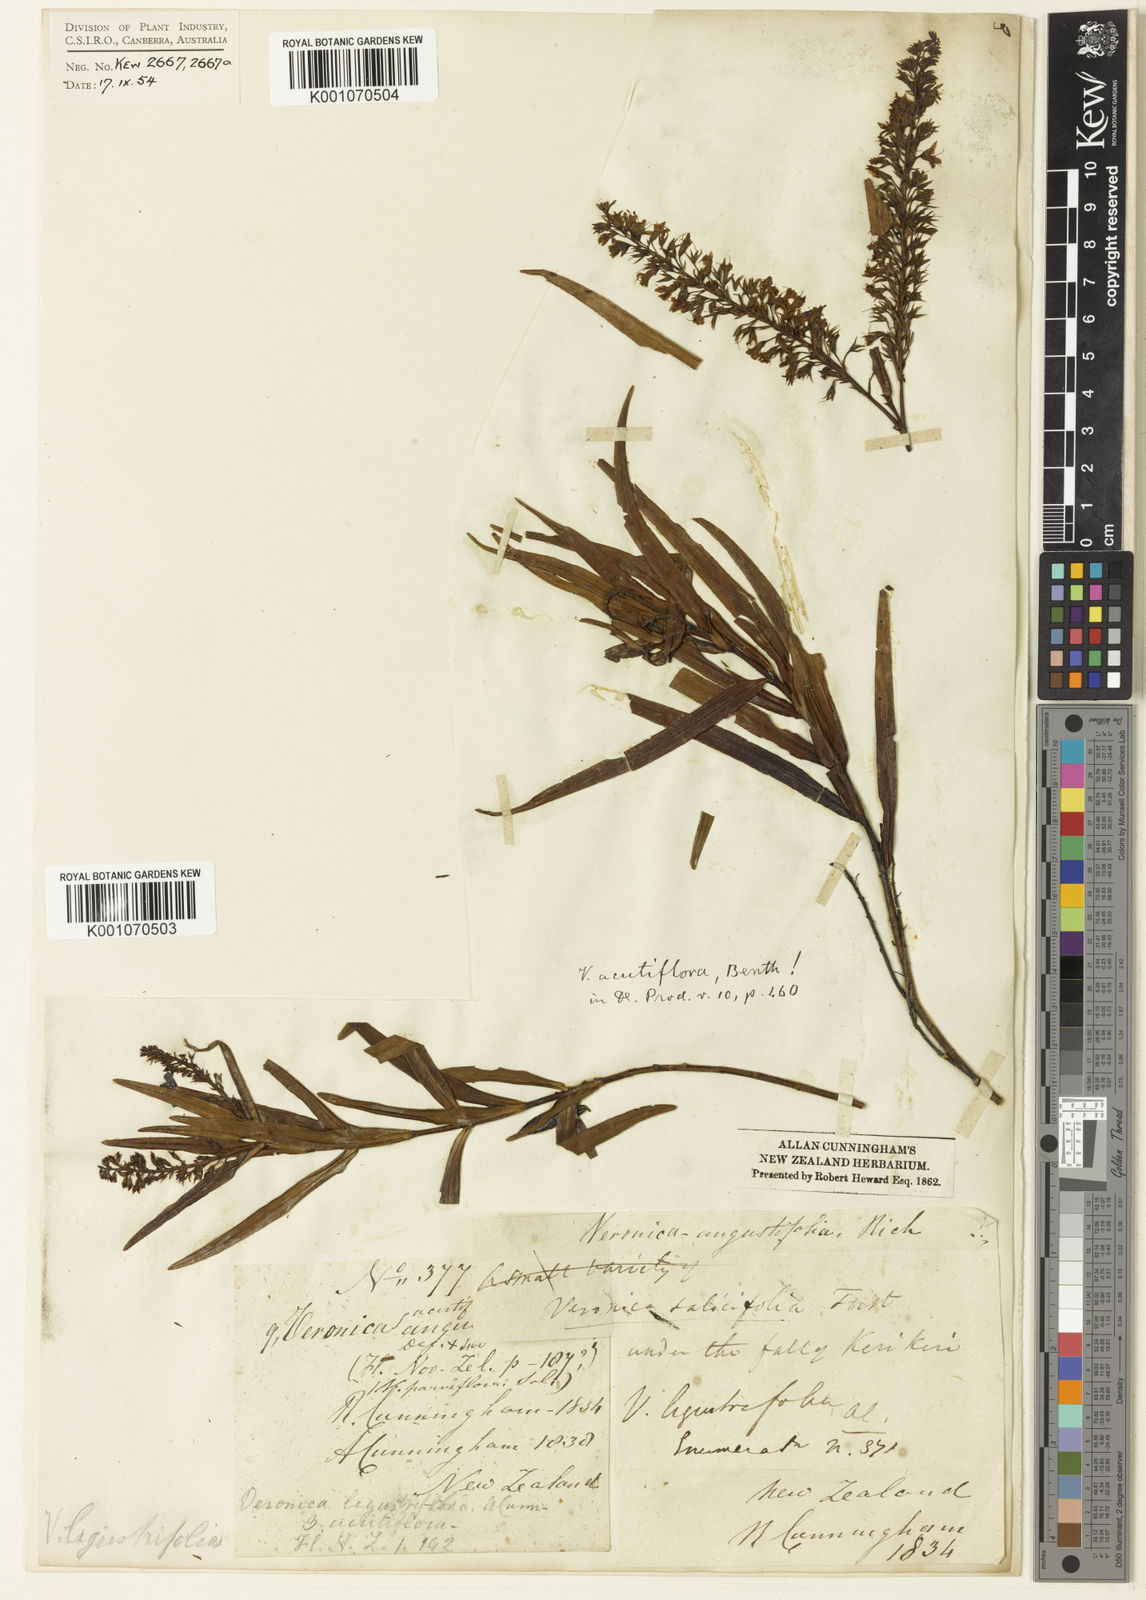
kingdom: Plantae
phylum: Tracheophyta
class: Magnoliopsida
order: Lamiales
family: Plantaginaceae
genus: Veronica
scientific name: Veronica rivalis
